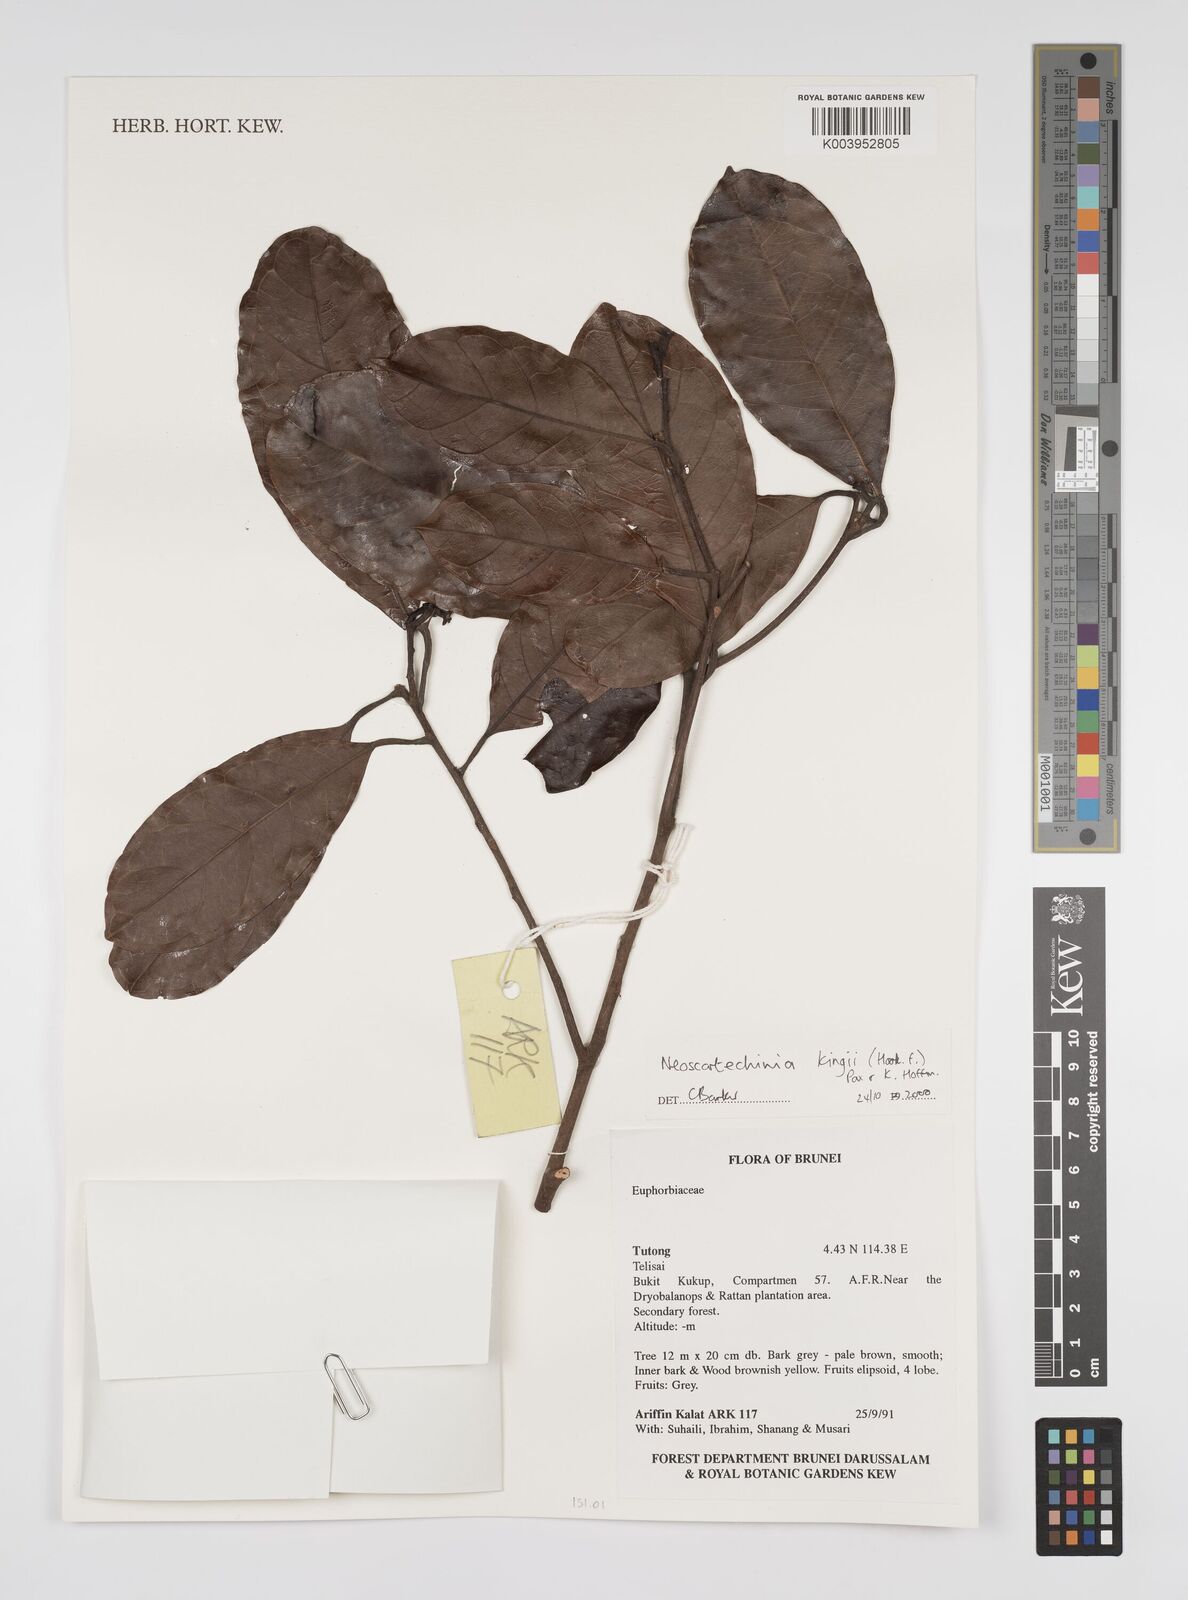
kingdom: Plantae
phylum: Tracheophyta
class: Magnoliopsida
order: Malpighiales
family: Euphorbiaceae
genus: Neoscortechinia
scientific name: Neoscortechinia kingii
